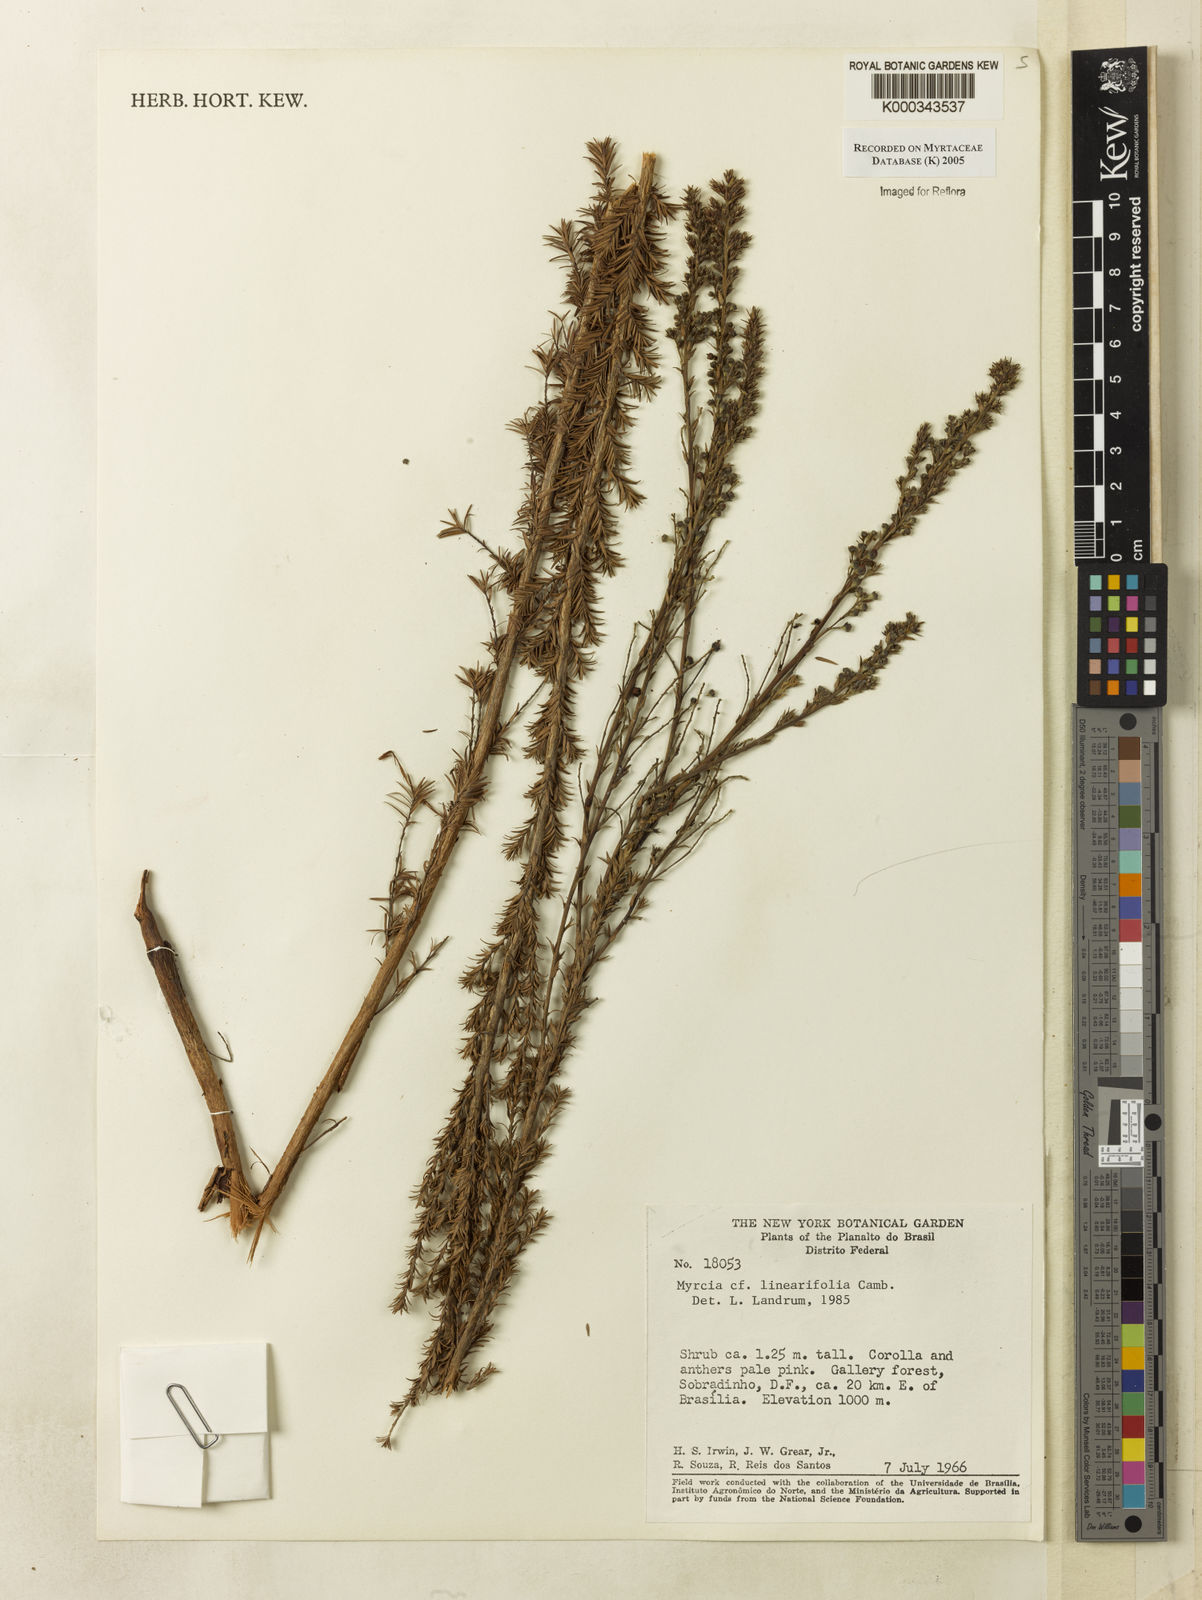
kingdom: Plantae
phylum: Tracheophyta
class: Magnoliopsida
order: Myrtales
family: Myrtaceae
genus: Myrcia
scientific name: Myrcia linearifolia
